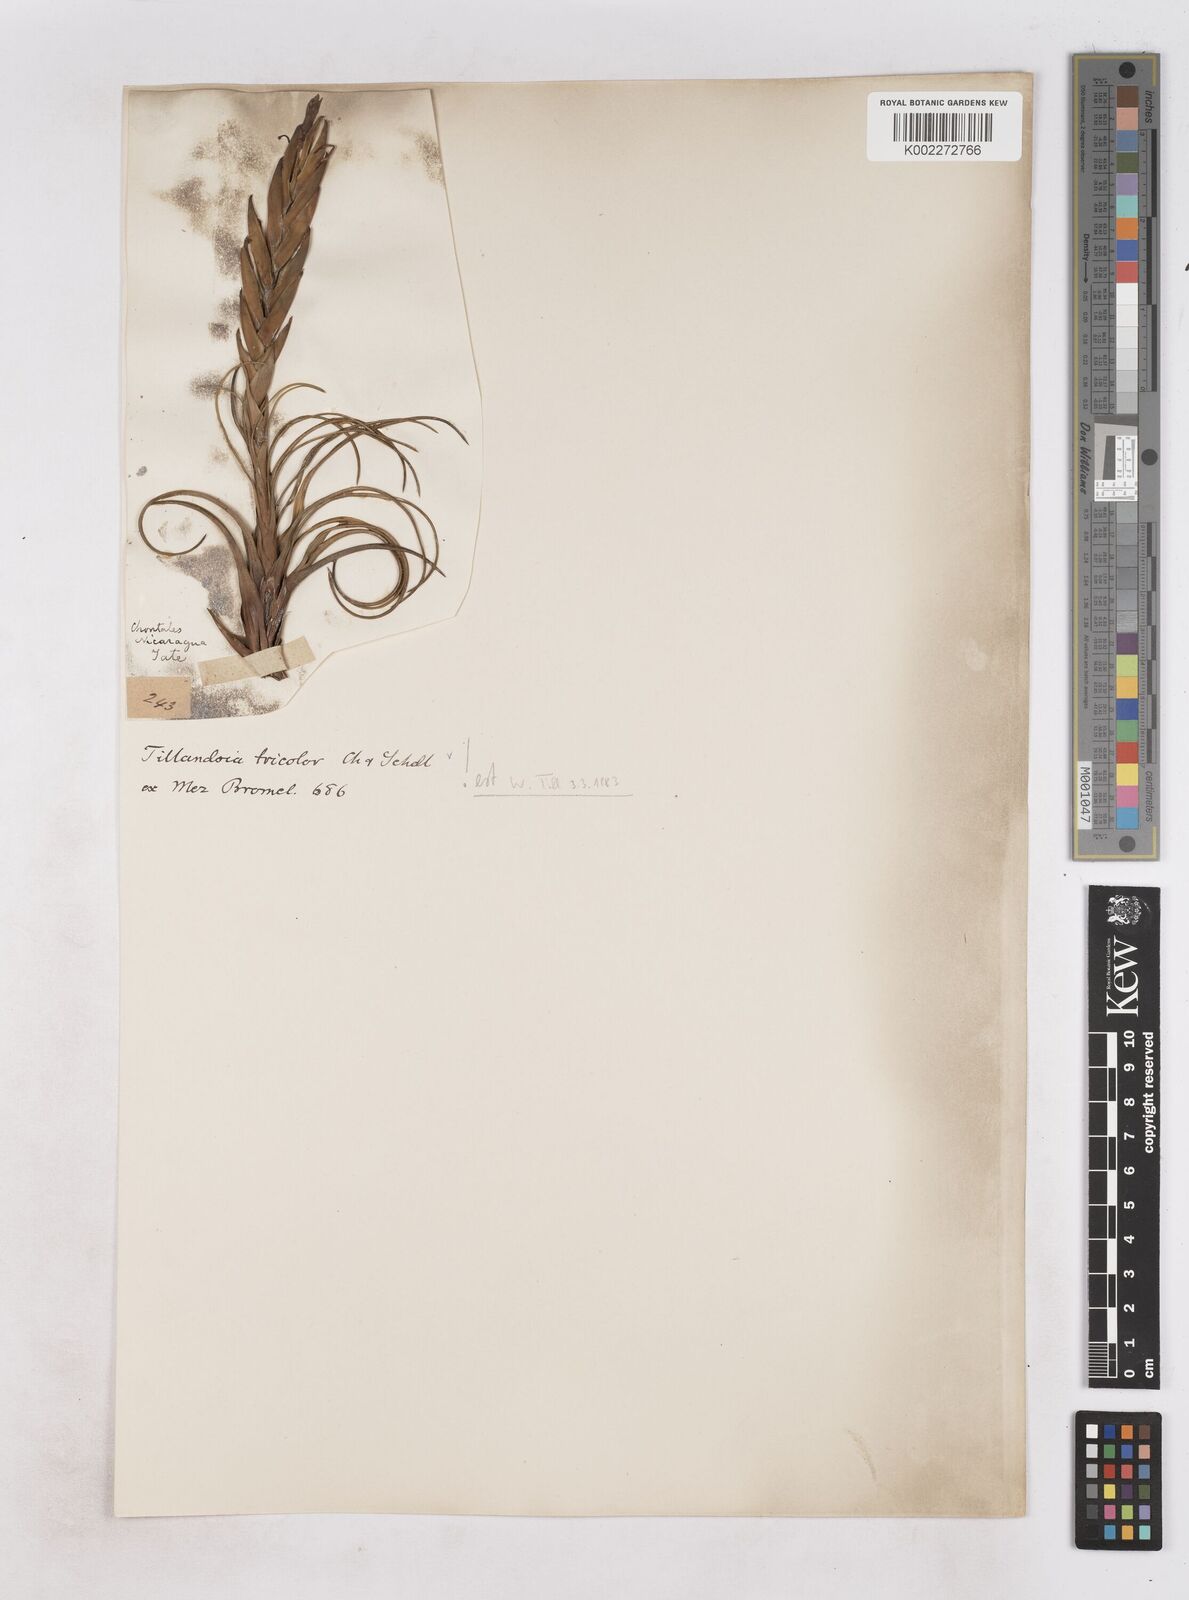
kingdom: Plantae
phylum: Tracheophyta
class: Liliopsida
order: Poales
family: Bromeliaceae
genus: Tillandsia
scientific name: Tillandsia tricolor
